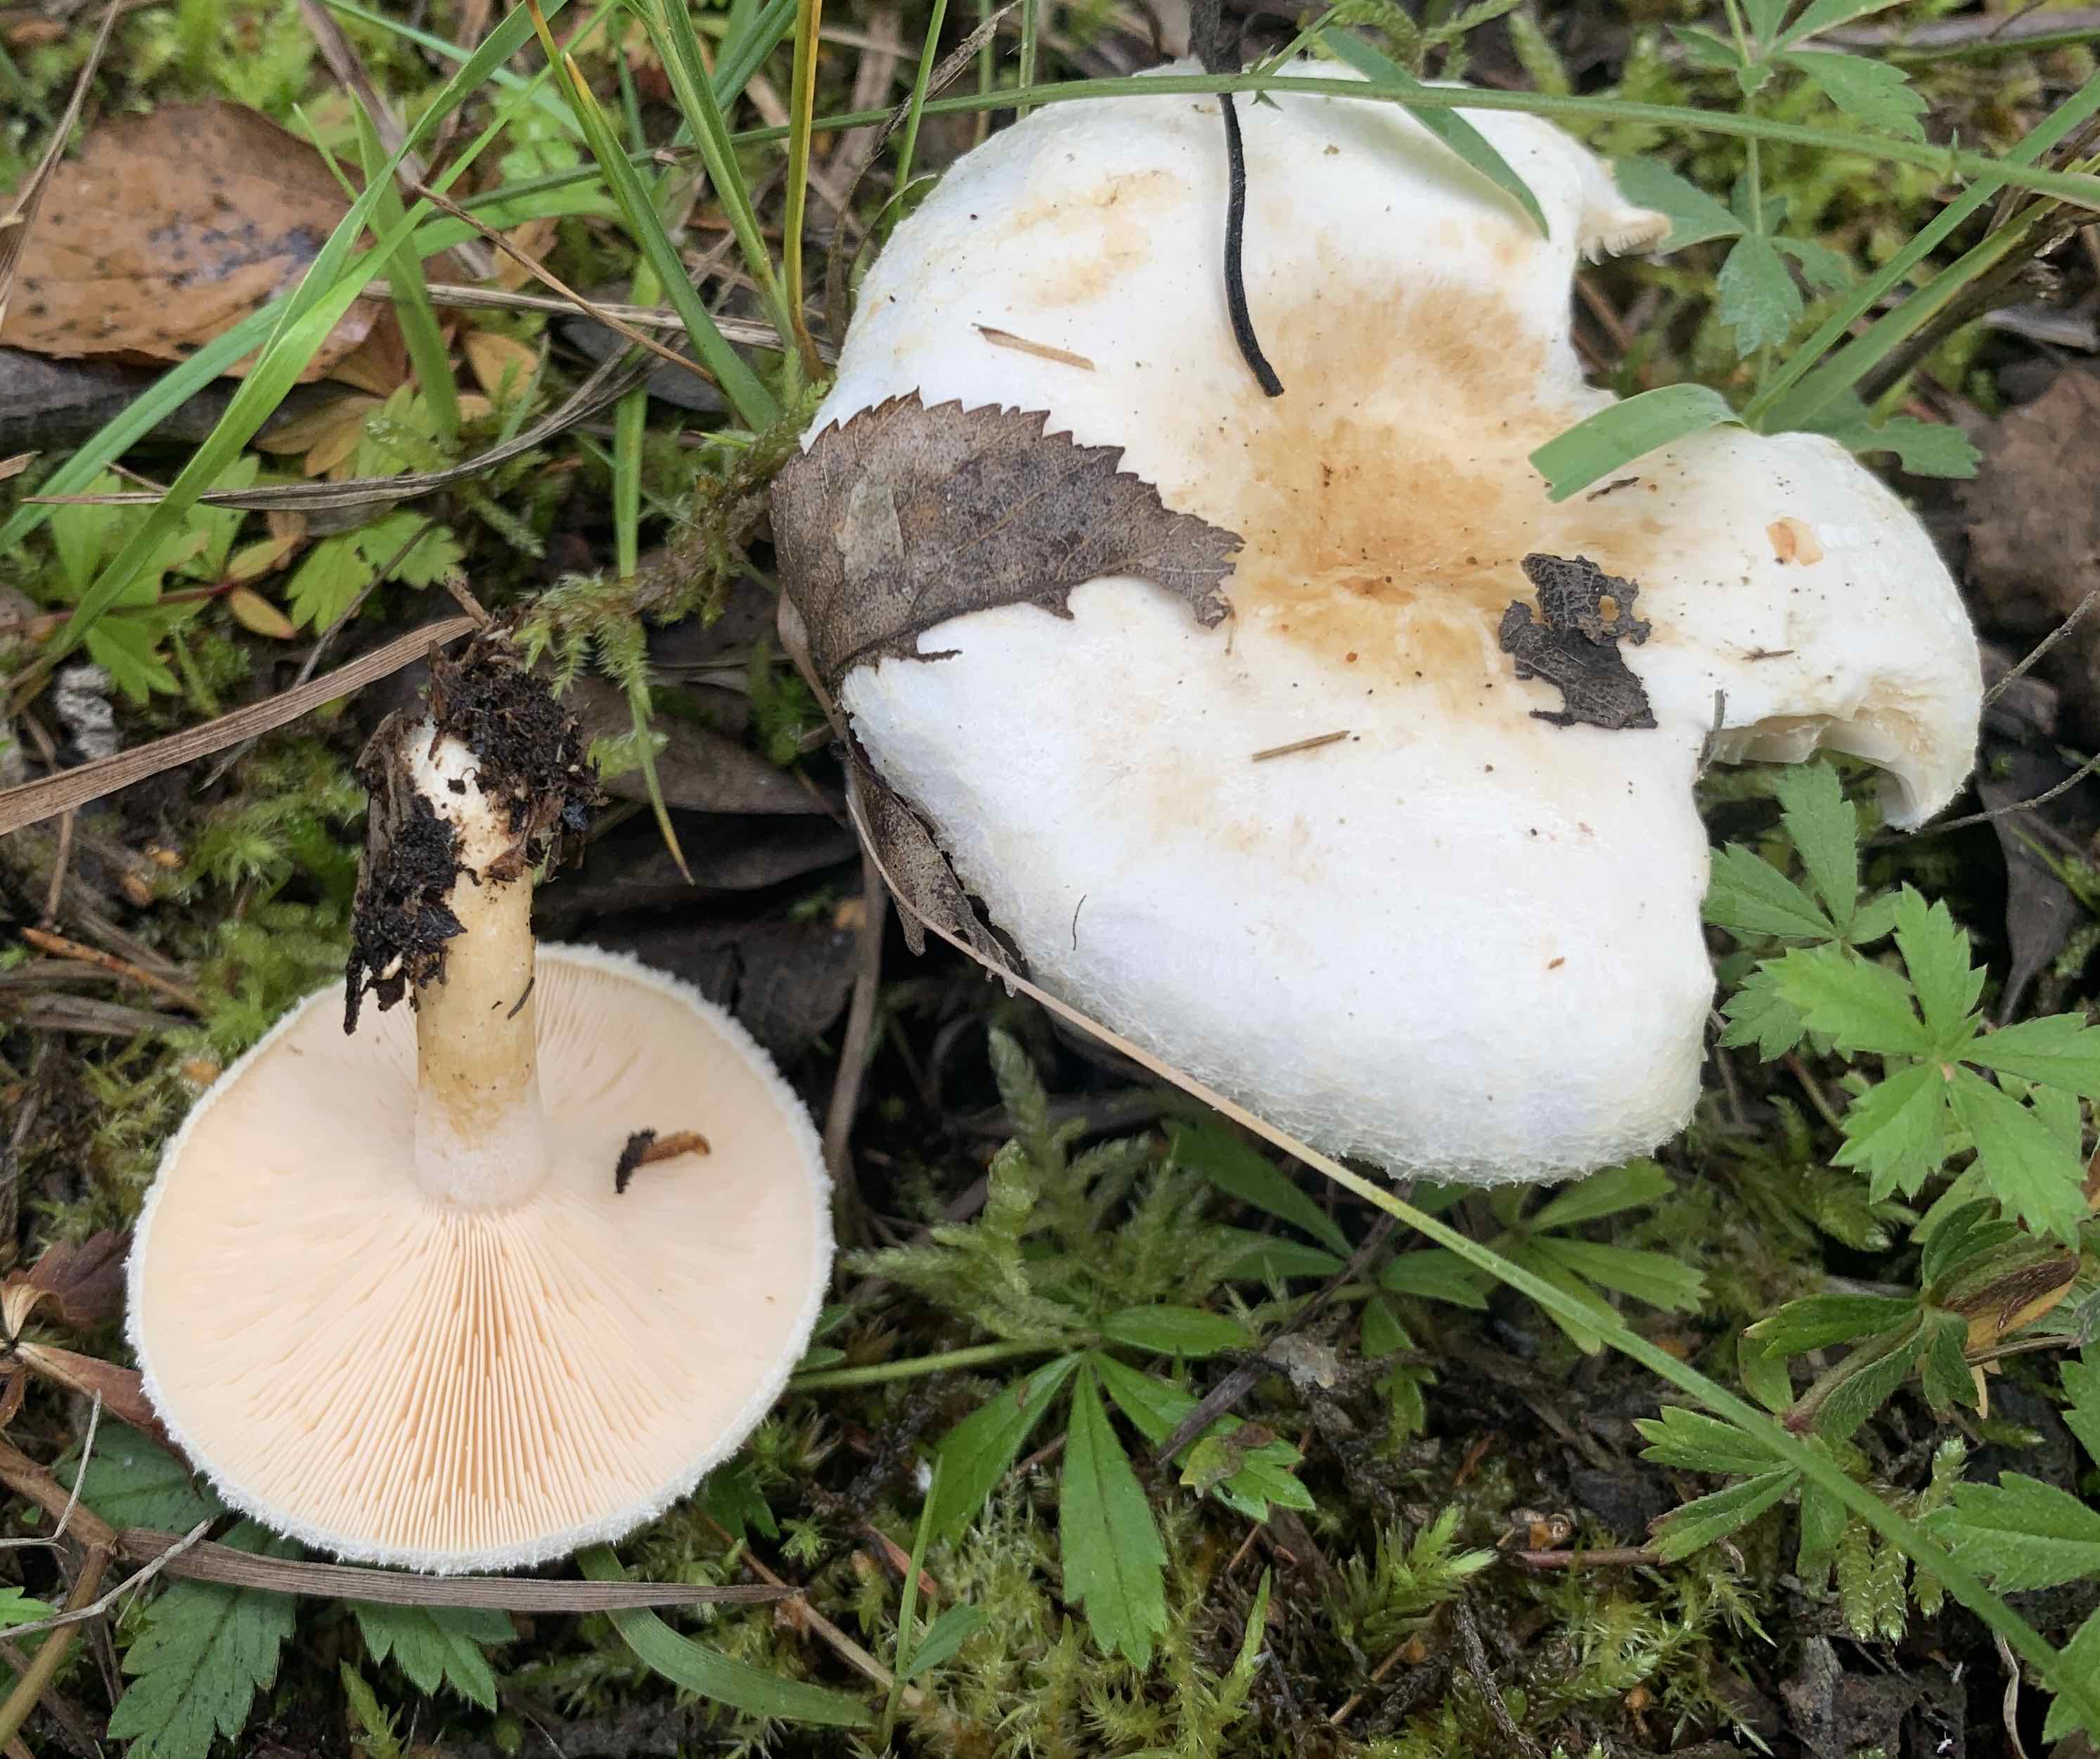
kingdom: Fungi
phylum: Basidiomycota
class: Agaricomycetes
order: Russulales
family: Russulaceae
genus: Lactarius
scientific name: Lactarius scoticus
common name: tørve-mælkehat
